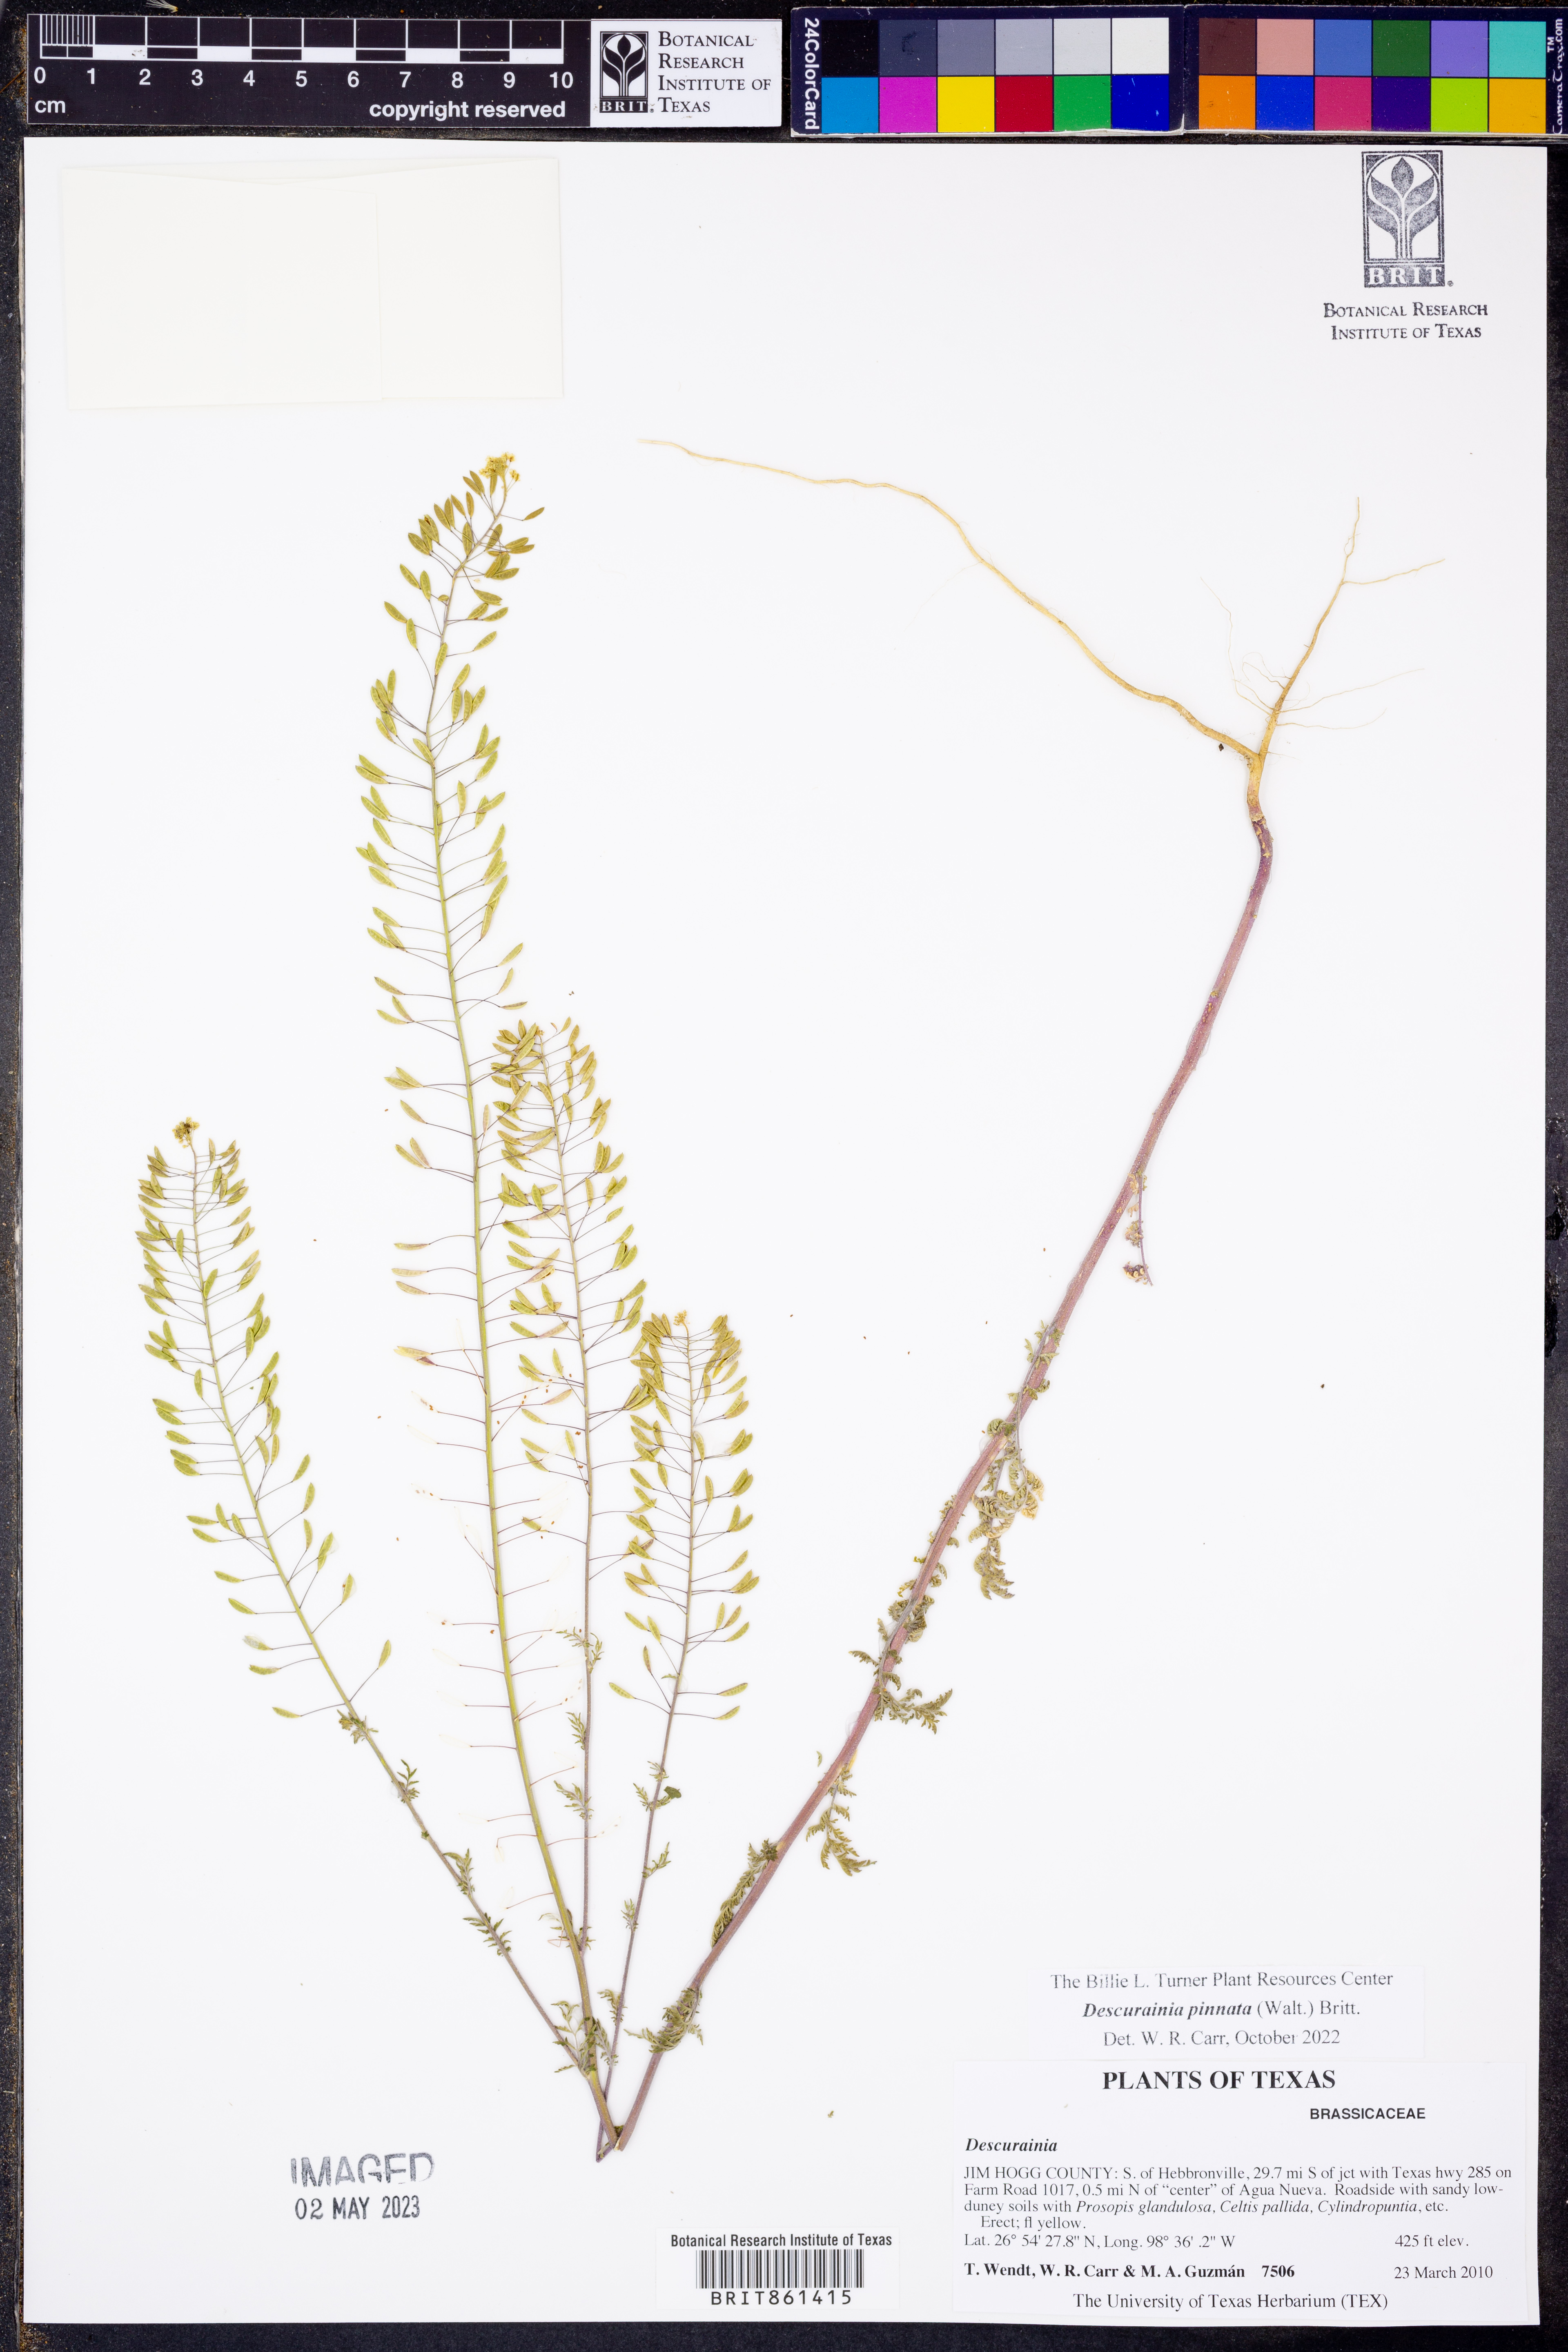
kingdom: Plantae
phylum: Tracheophyta
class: Magnoliopsida
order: Brassicales
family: Brassicaceae
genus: Descurainia
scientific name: Descurainia pinnata
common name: Western tansy mustard
